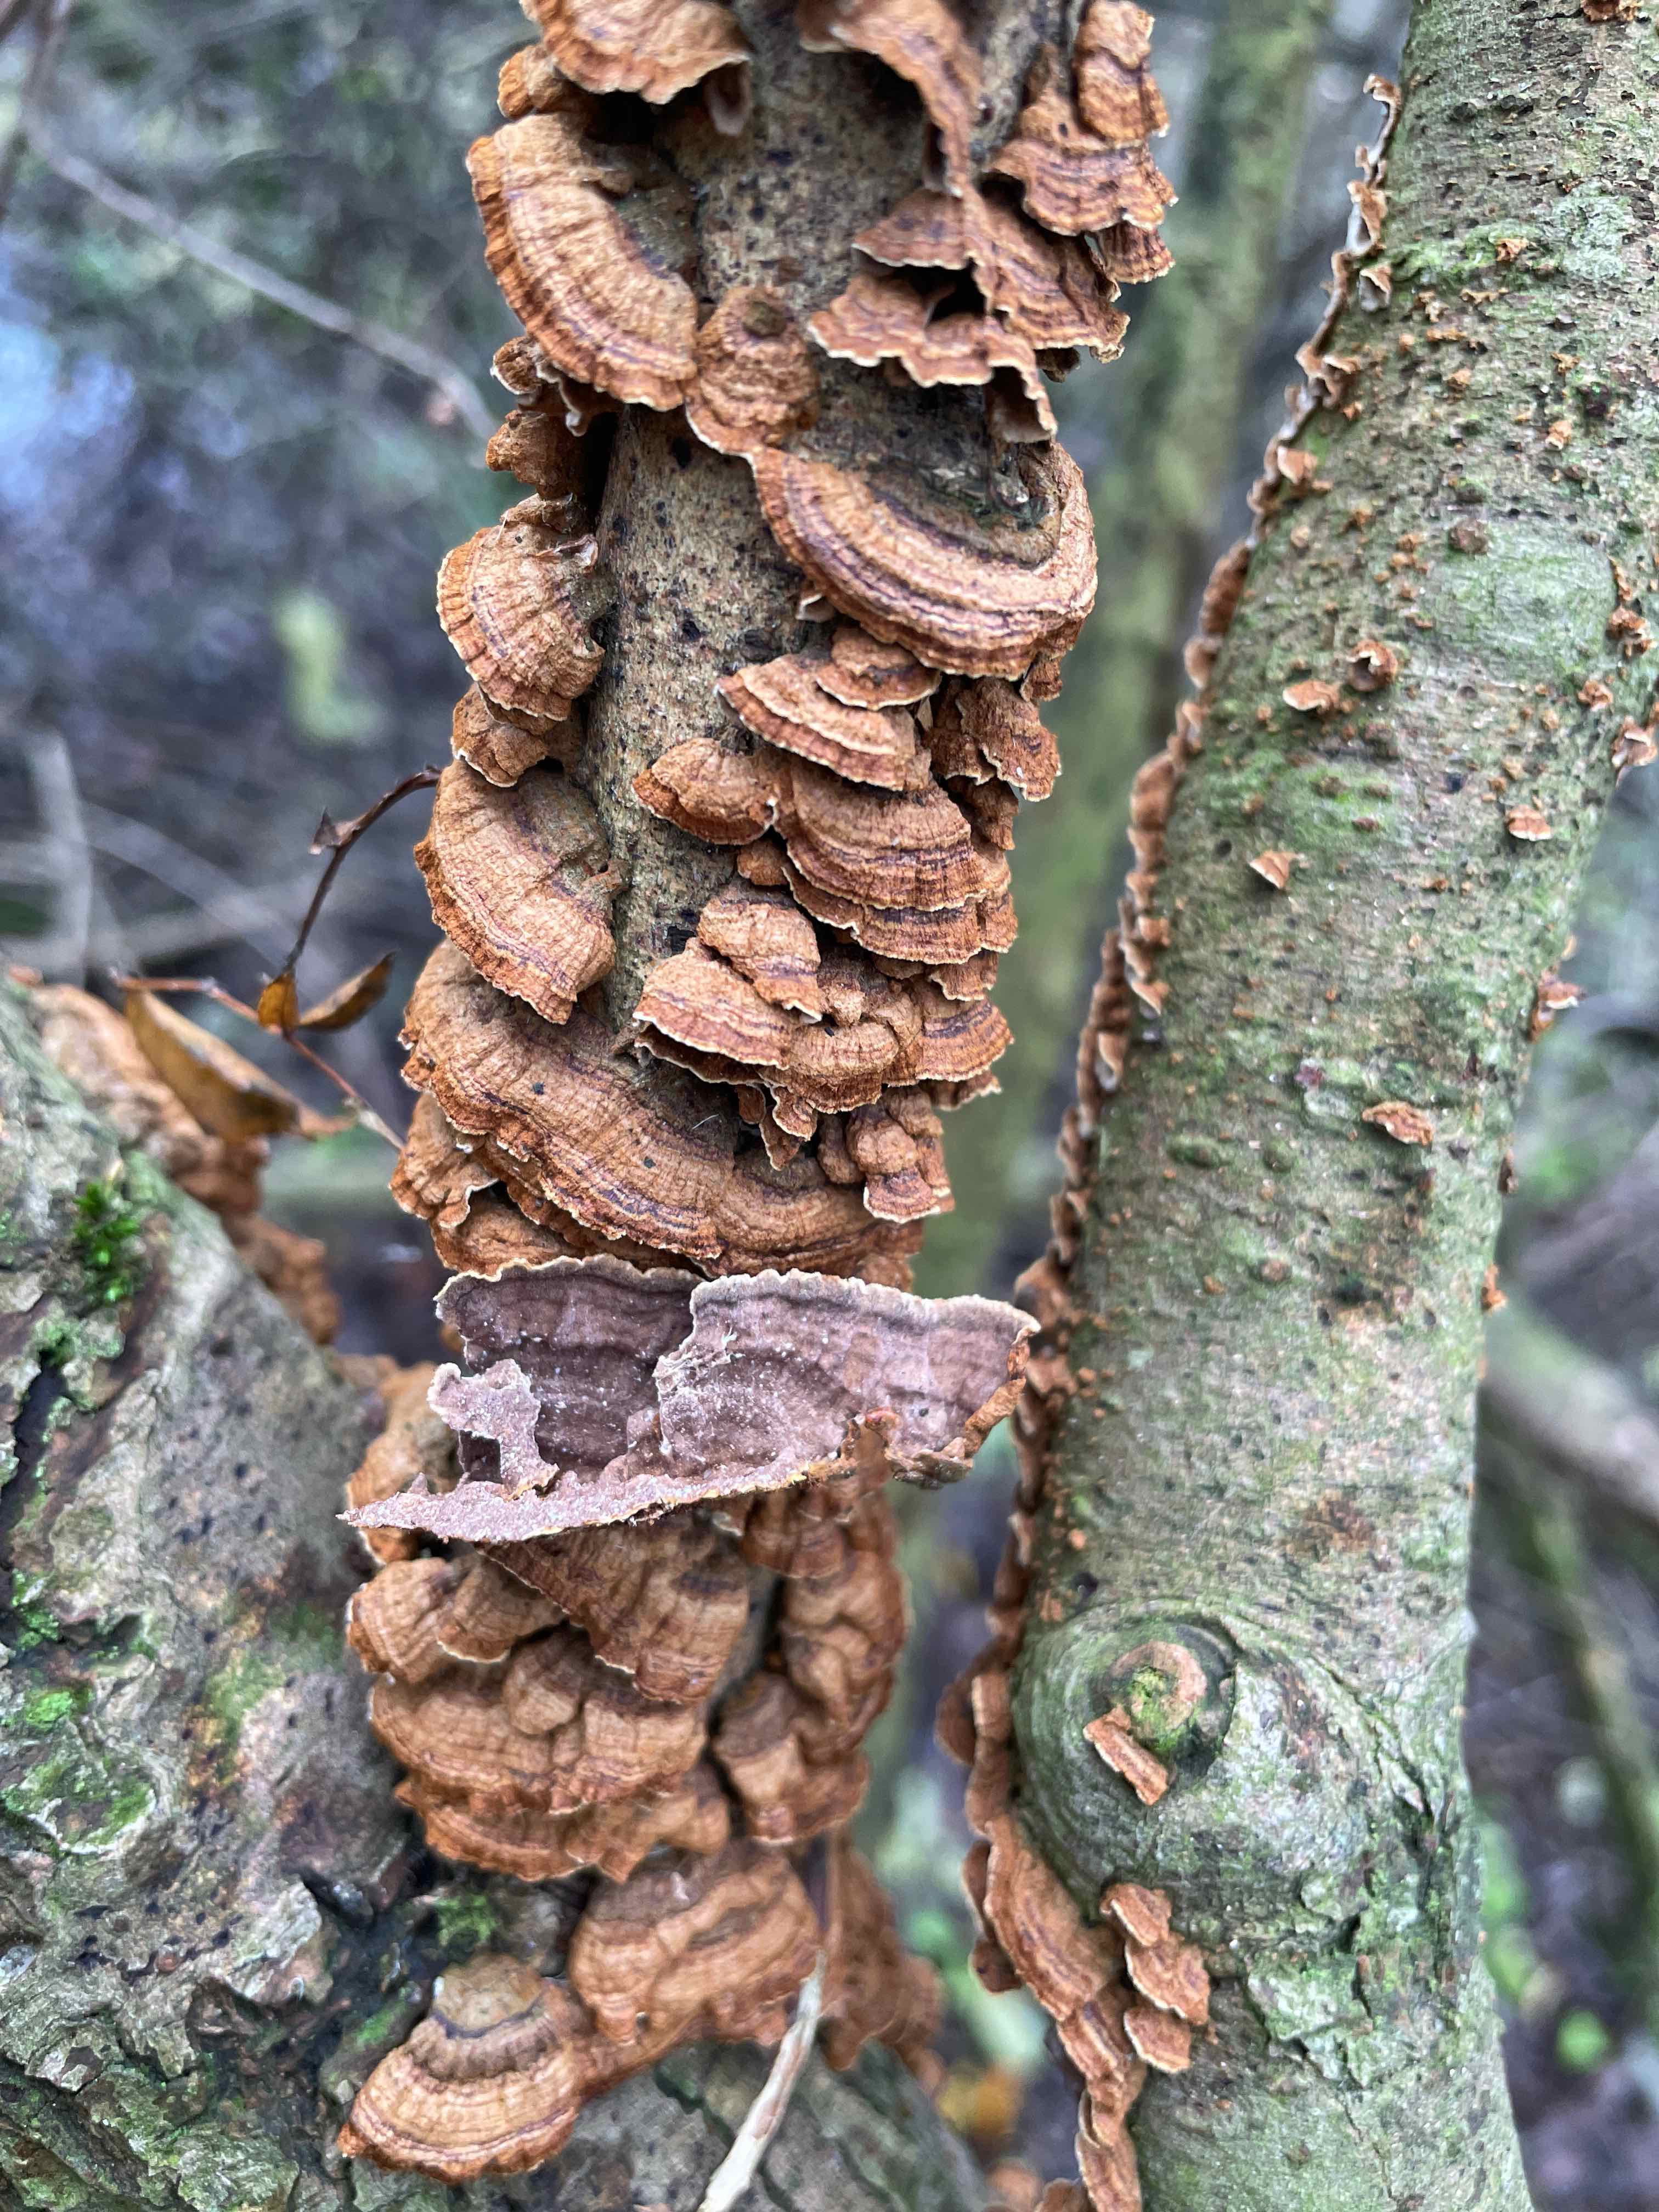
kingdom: Fungi
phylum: Basidiomycota
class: Agaricomycetes
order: Hymenochaetales
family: Hymenochaetaceae
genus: Hydnoporia
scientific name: Hydnoporia tabacina
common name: tobaksbrun ruslædersvamp
